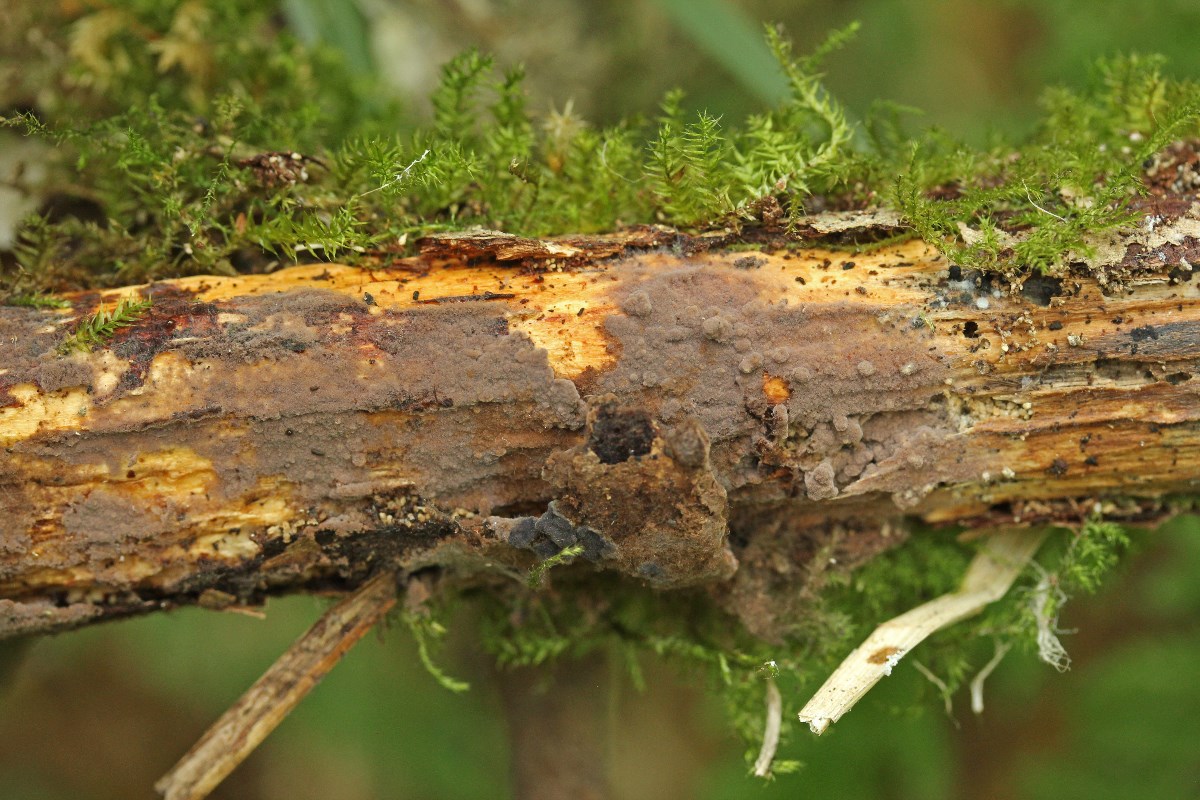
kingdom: Fungi
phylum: Basidiomycota
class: Agaricomycetes
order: Thelephorales
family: Thelephoraceae
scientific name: Thelephoraceae
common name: frynsesvampfamilien
